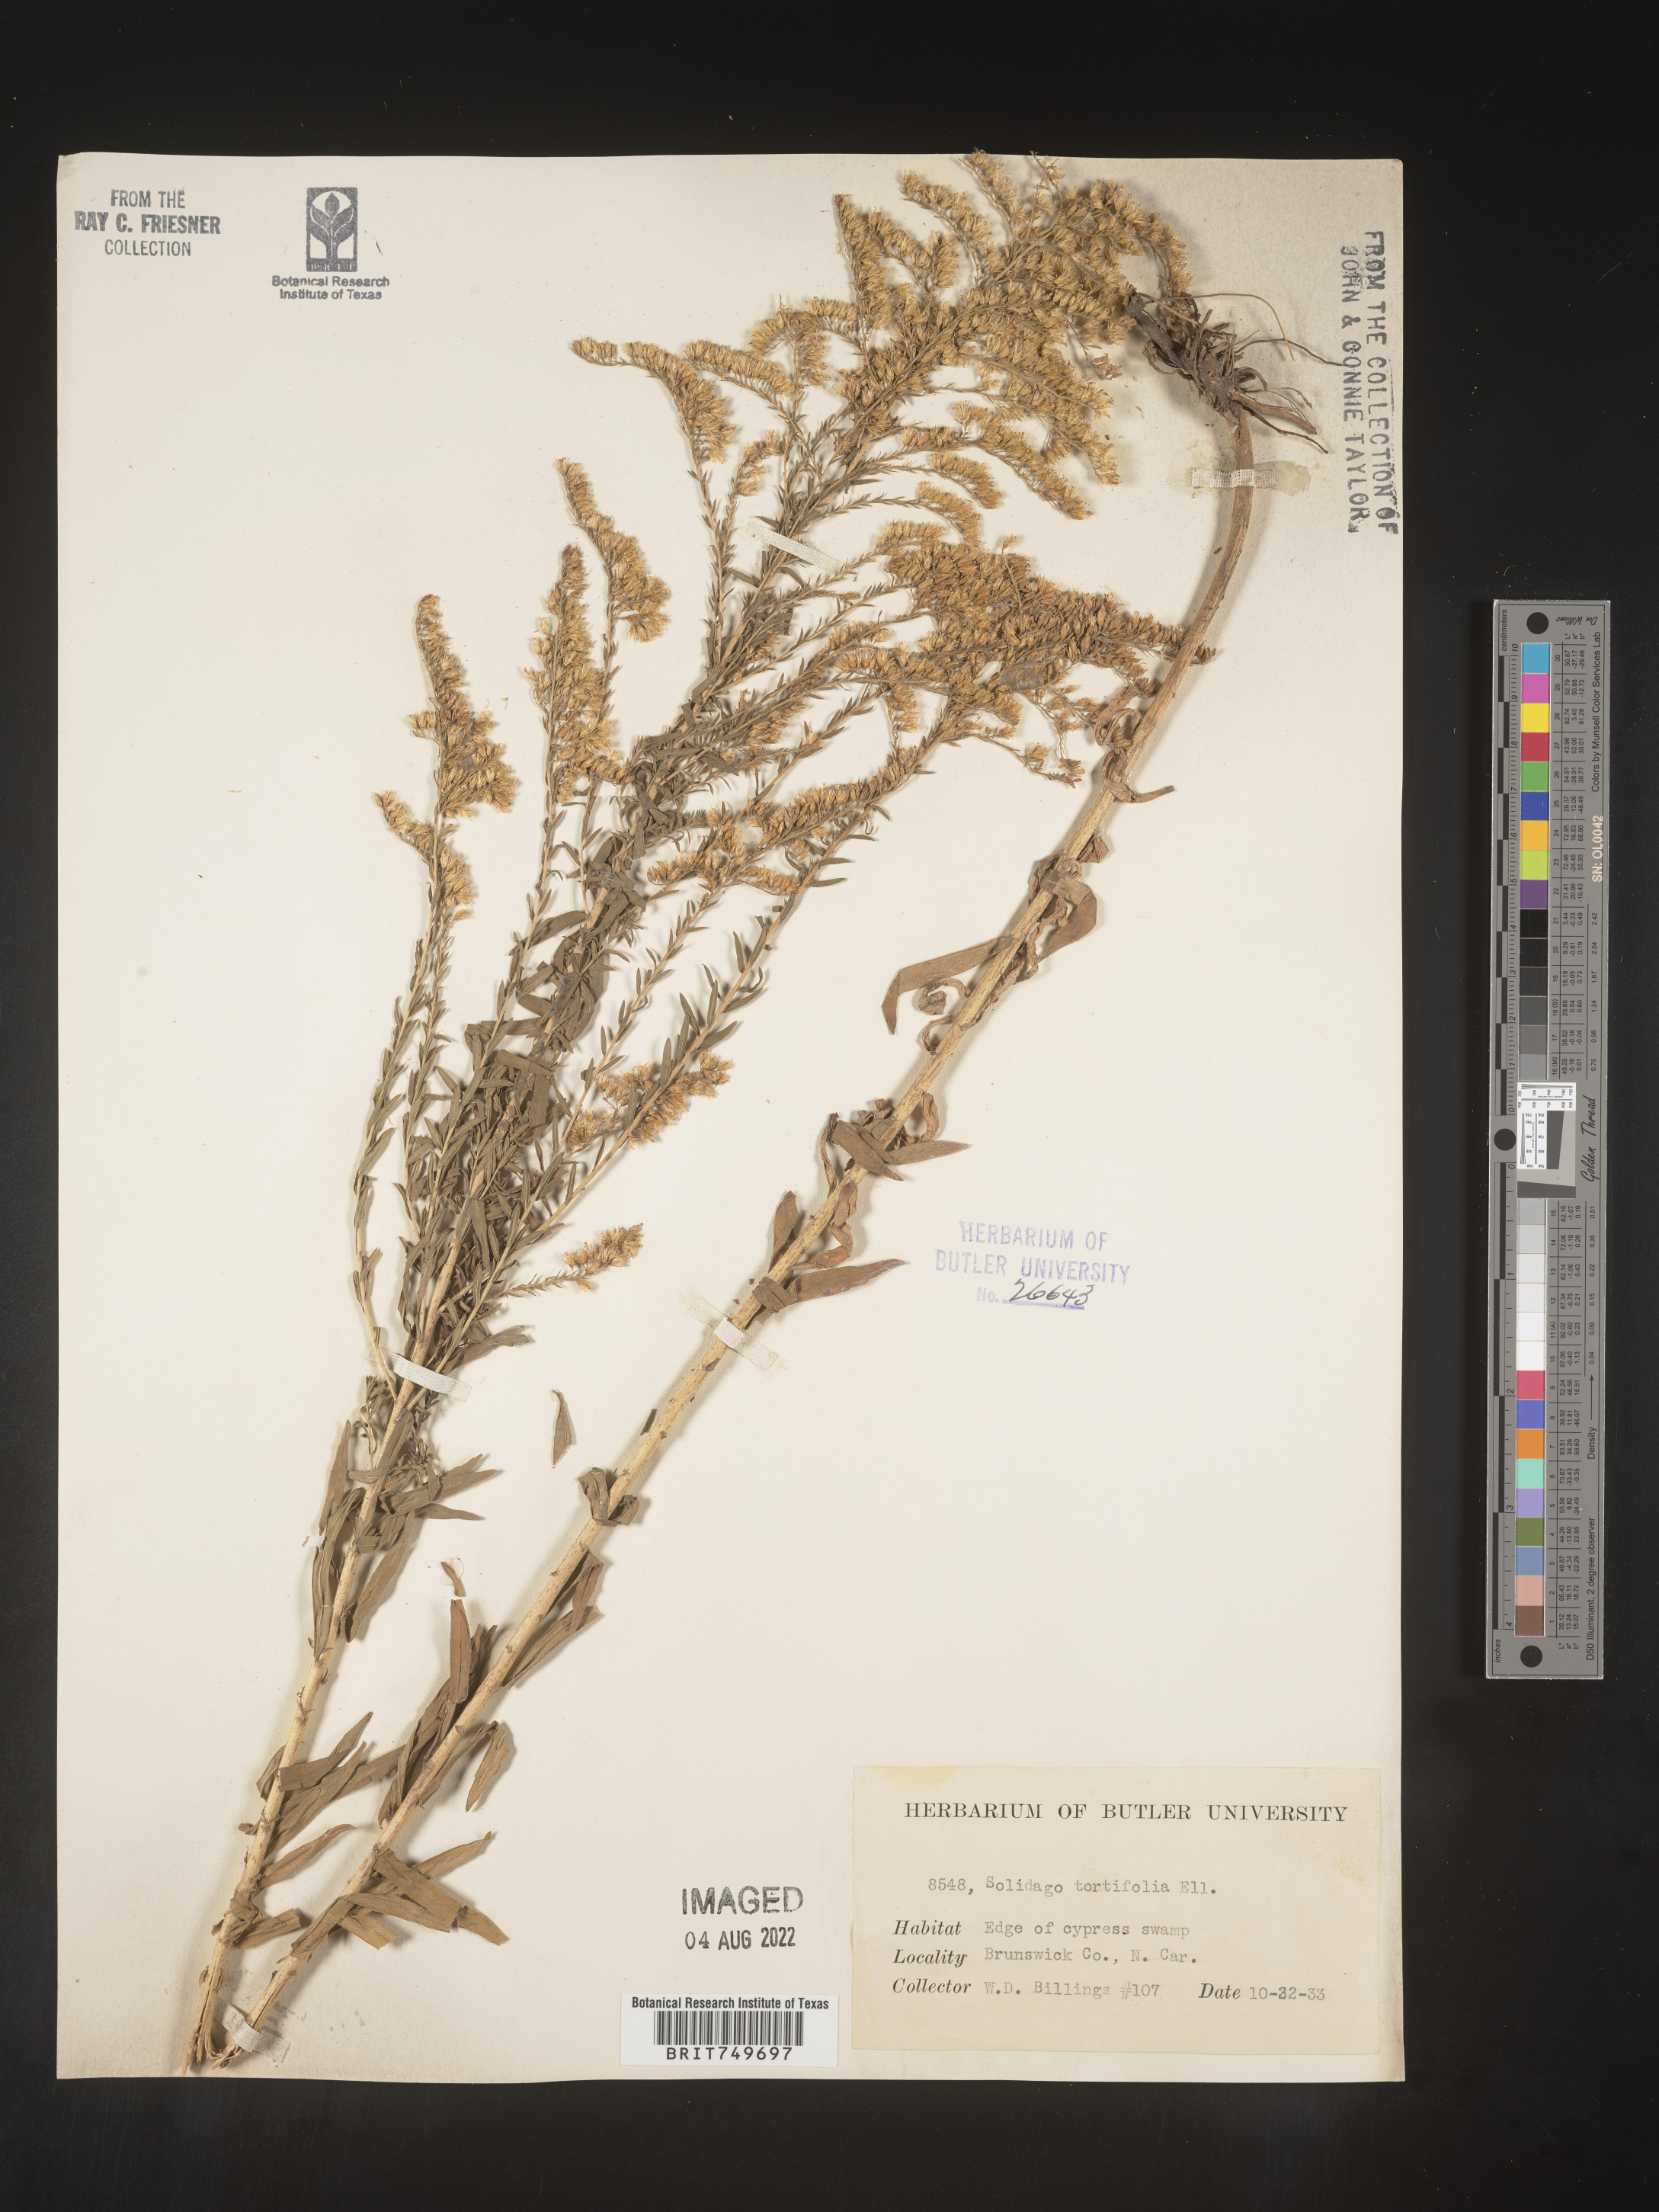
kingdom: Plantae
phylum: Tracheophyta
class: Magnoliopsida
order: Asterales
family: Asteraceae
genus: Solidago
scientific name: Solidago tortifolia
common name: Twisted-leaf goldenrod
